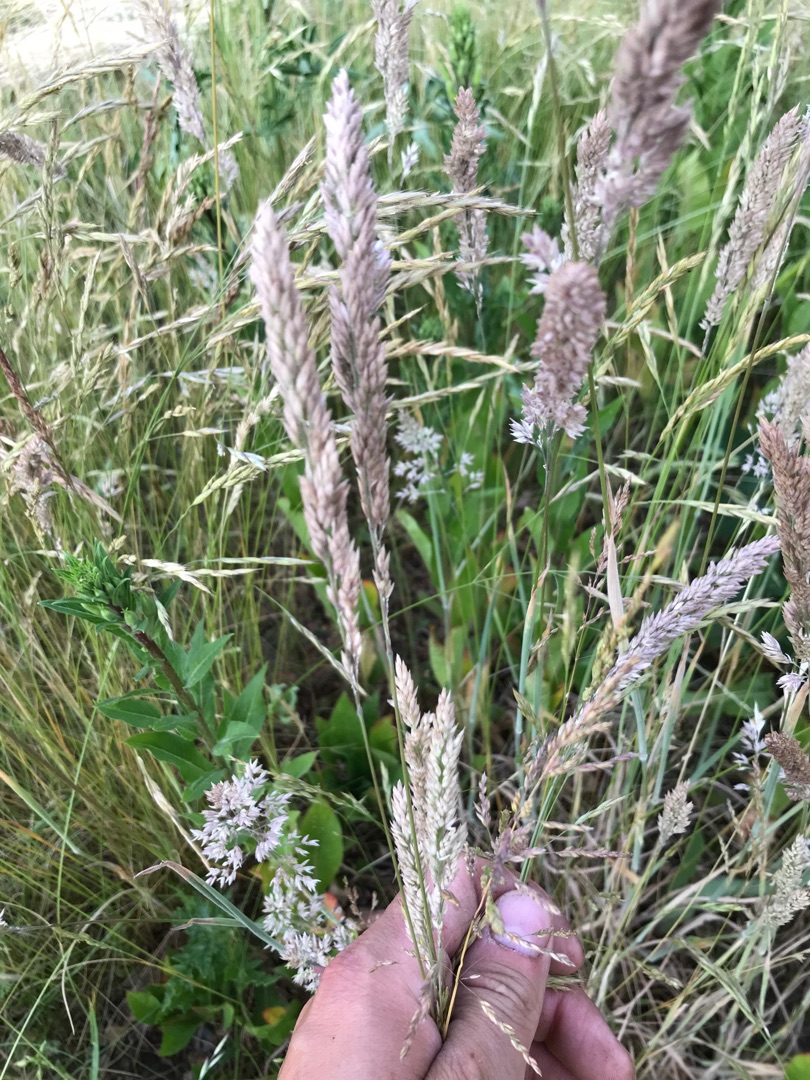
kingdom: Plantae
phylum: Tracheophyta
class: Liliopsida
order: Poales
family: Poaceae
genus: Holcus
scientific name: Holcus lanatus
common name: Fløjlsgræs
